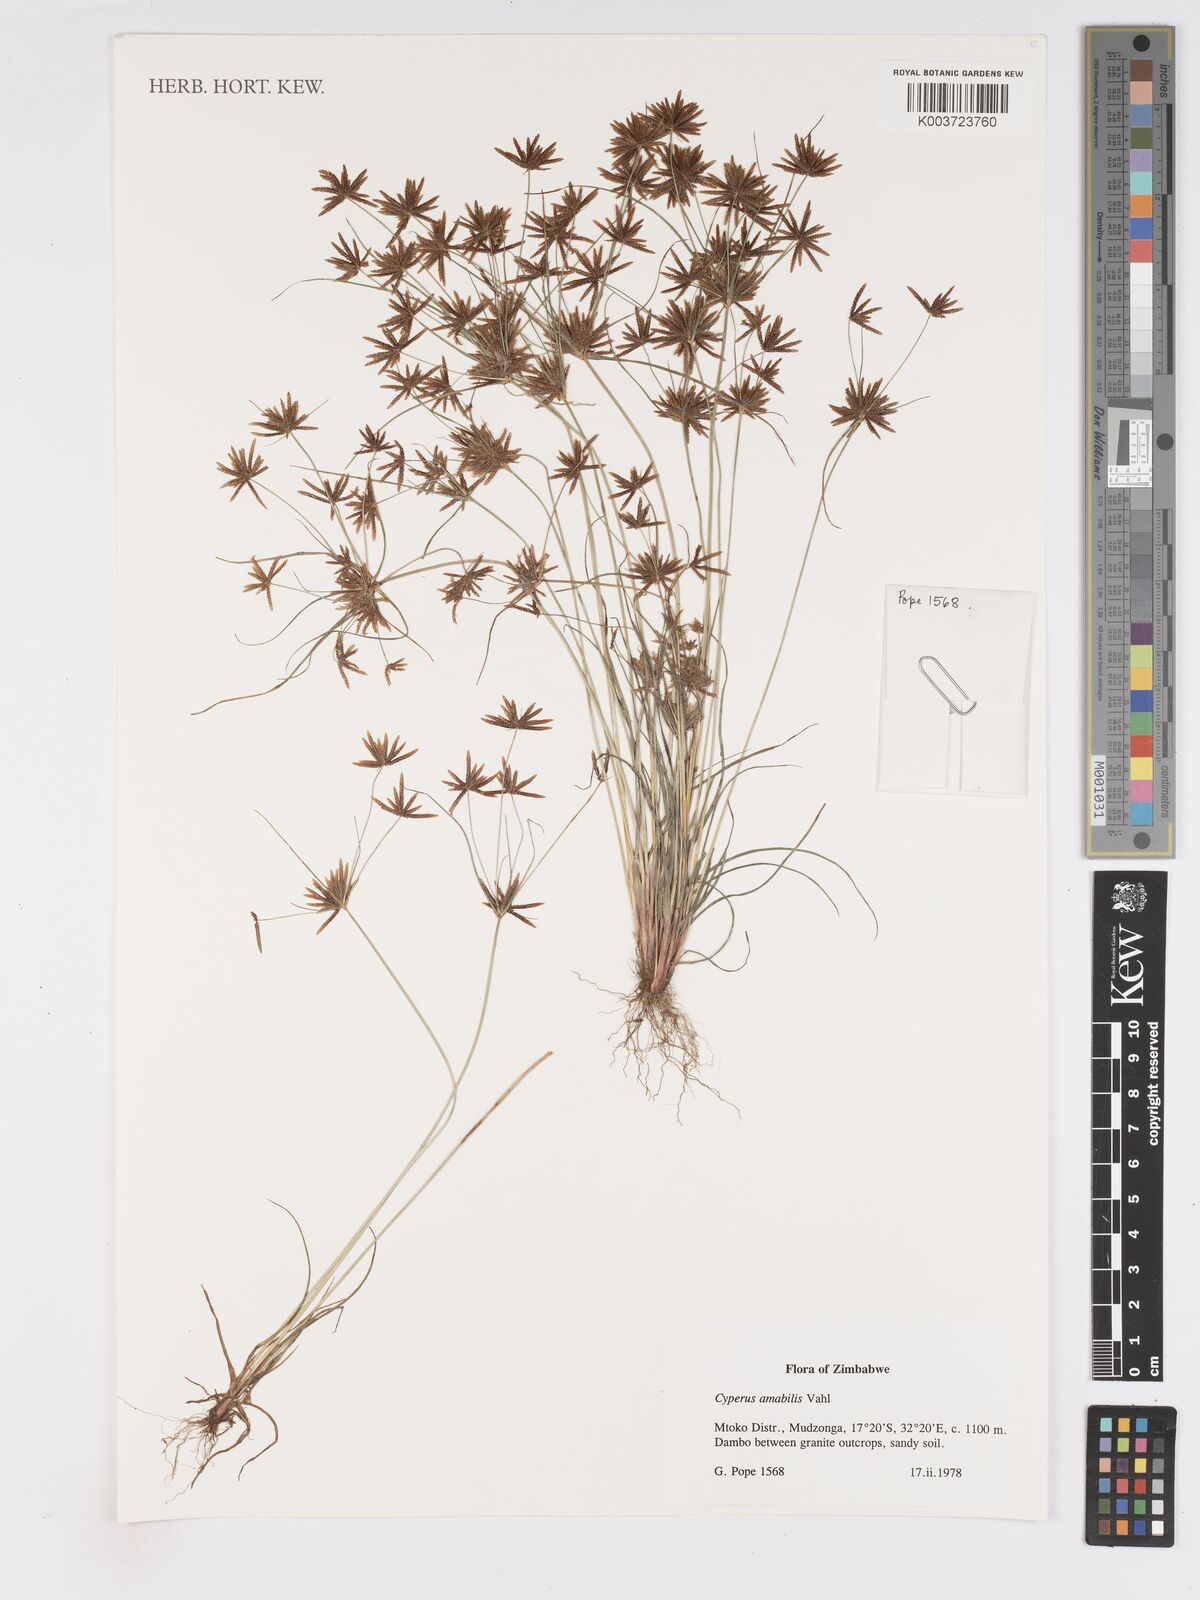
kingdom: Plantae
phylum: Tracheophyta
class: Liliopsida
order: Poales
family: Cyperaceae
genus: Cyperus
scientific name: Cyperus amabilis
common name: Foothill flat sedge
